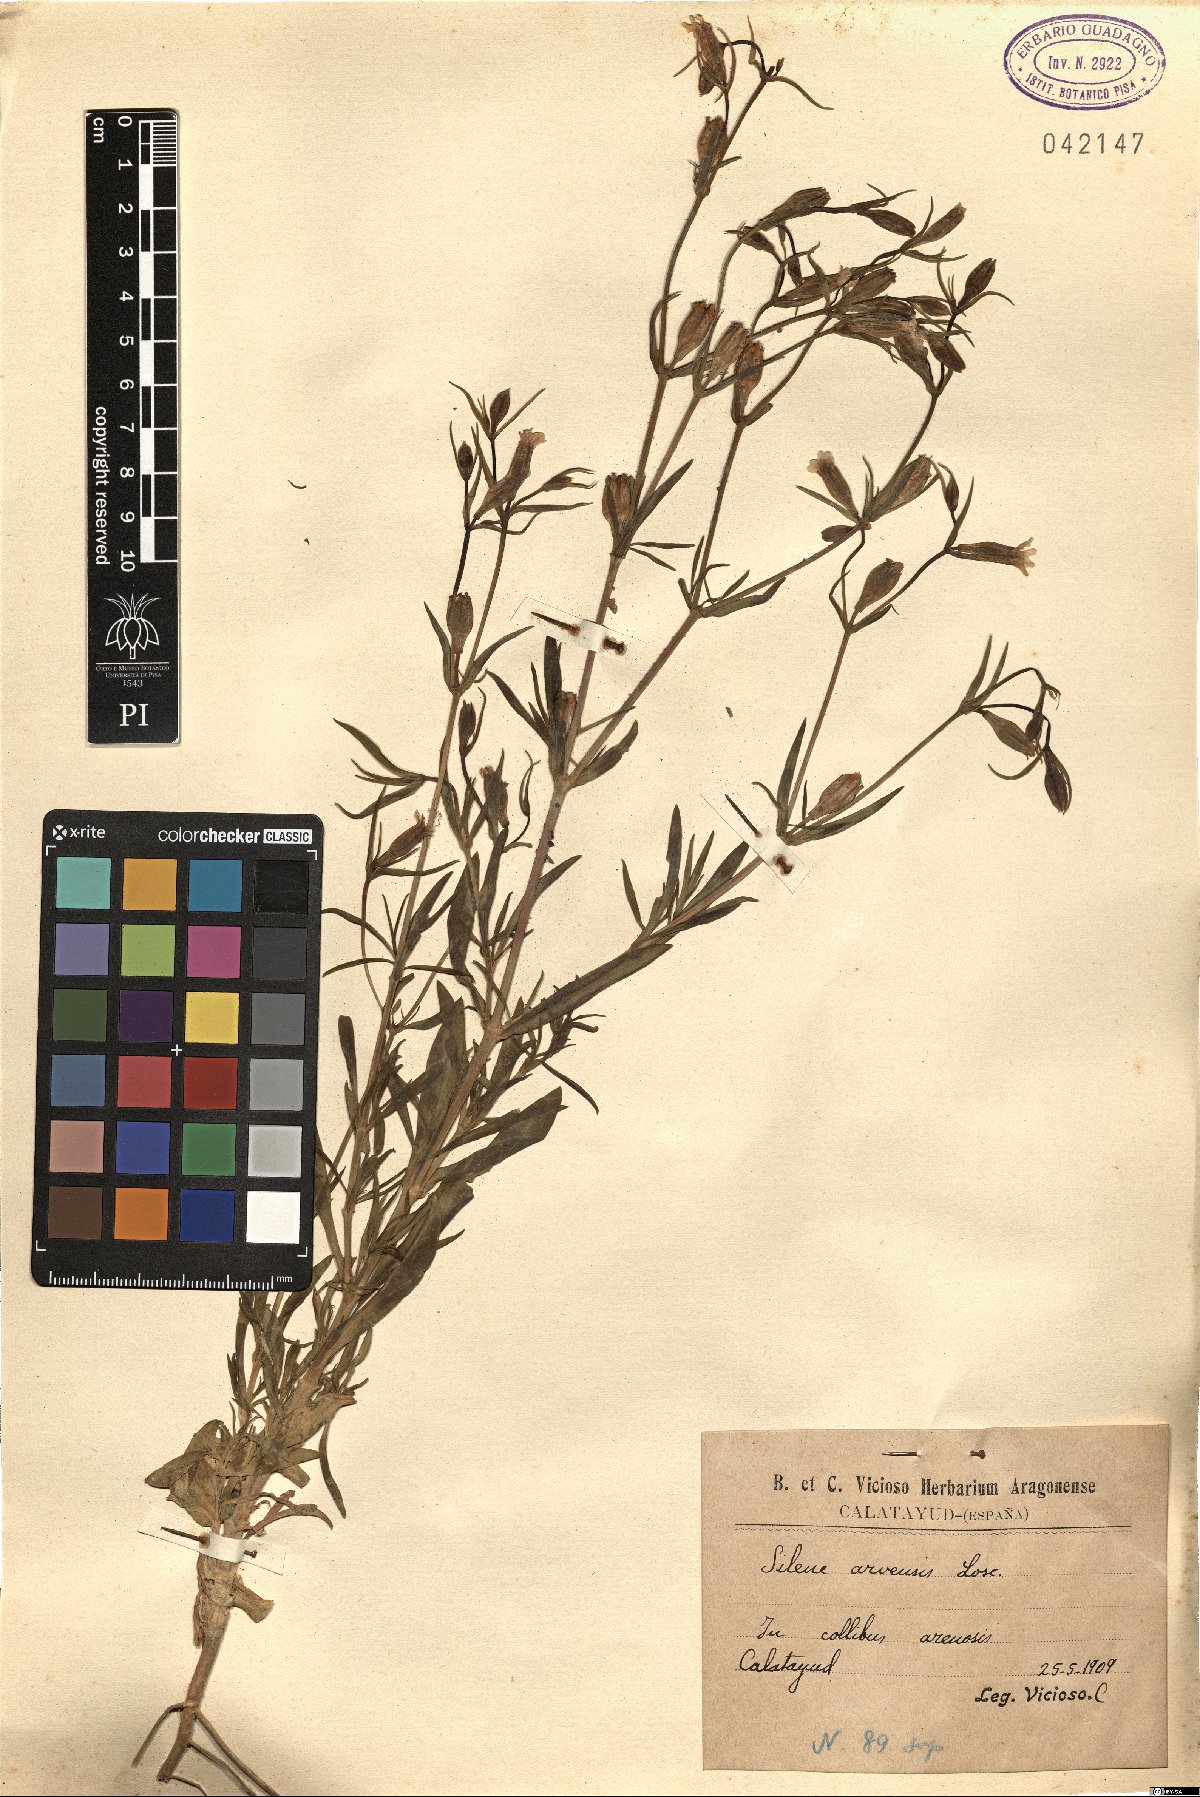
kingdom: Plantae
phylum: Tracheophyta
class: Magnoliopsida
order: Caryophyllales
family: Caryophyllaceae
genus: Silene
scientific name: Silene muscipula
